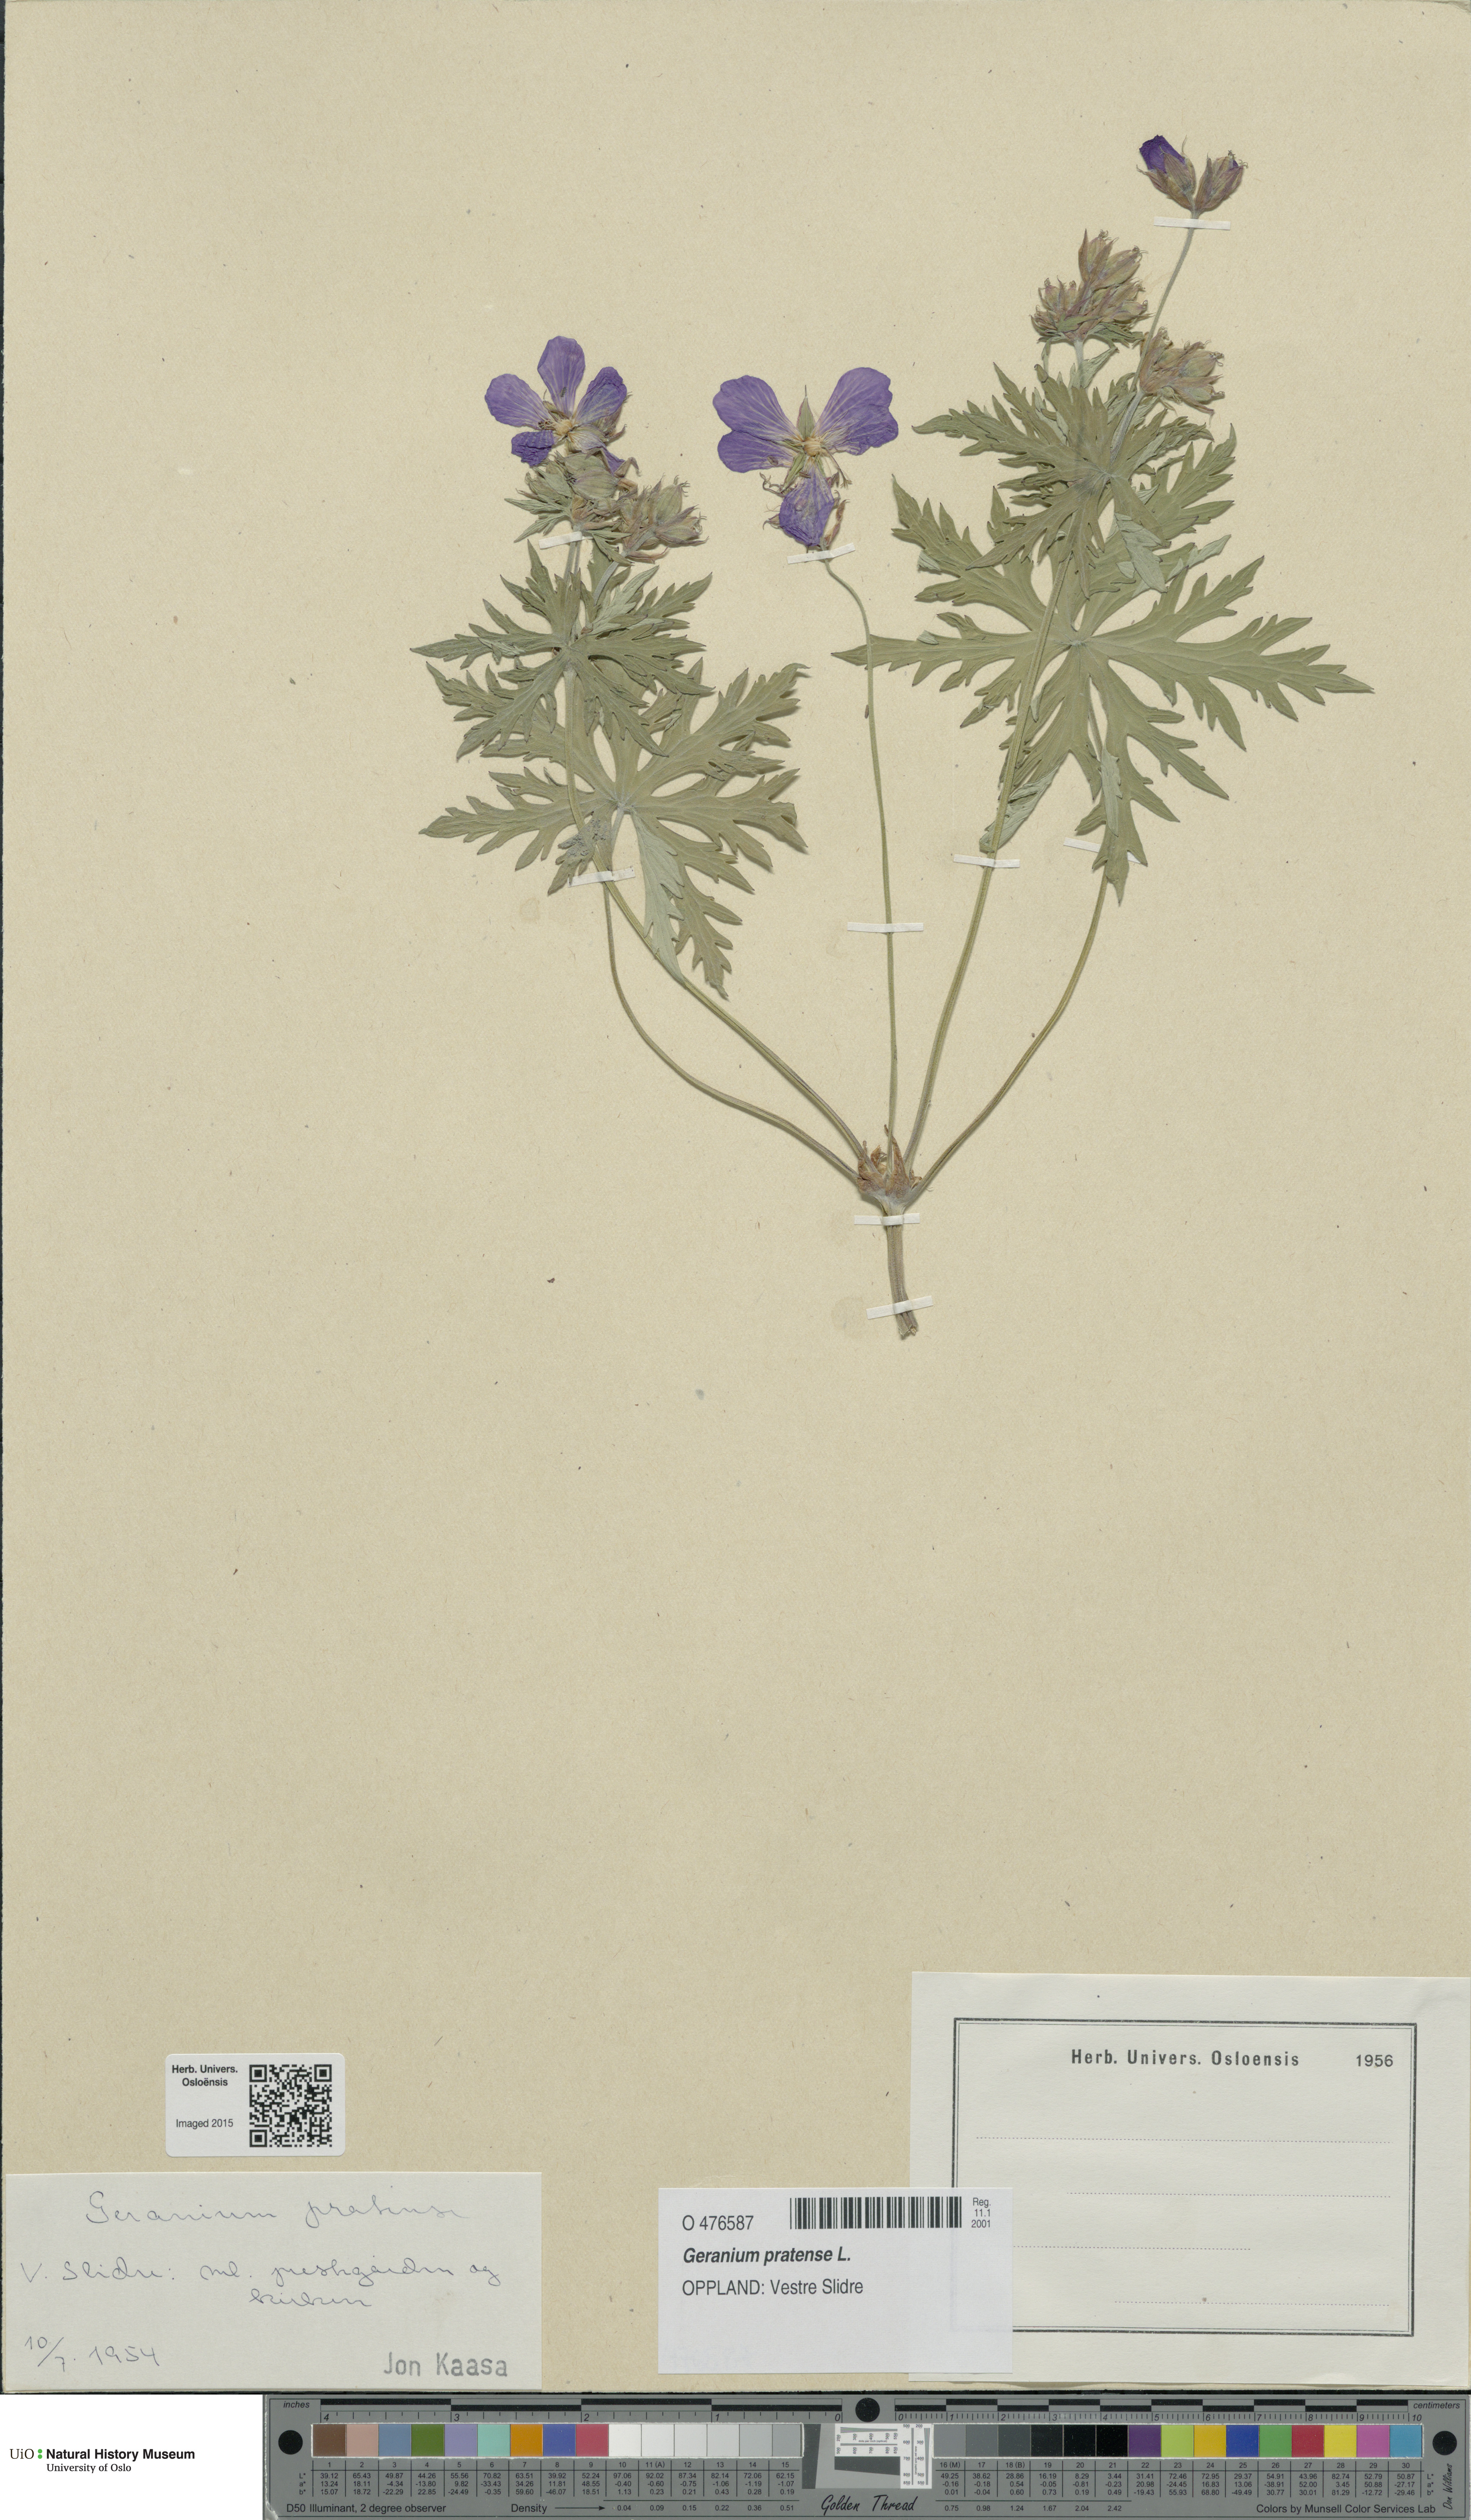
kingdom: Plantae
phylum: Tracheophyta
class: Magnoliopsida
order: Geraniales
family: Geraniaceae
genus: Geranium
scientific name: Geranium pratense
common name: Meadow crane's-bill
